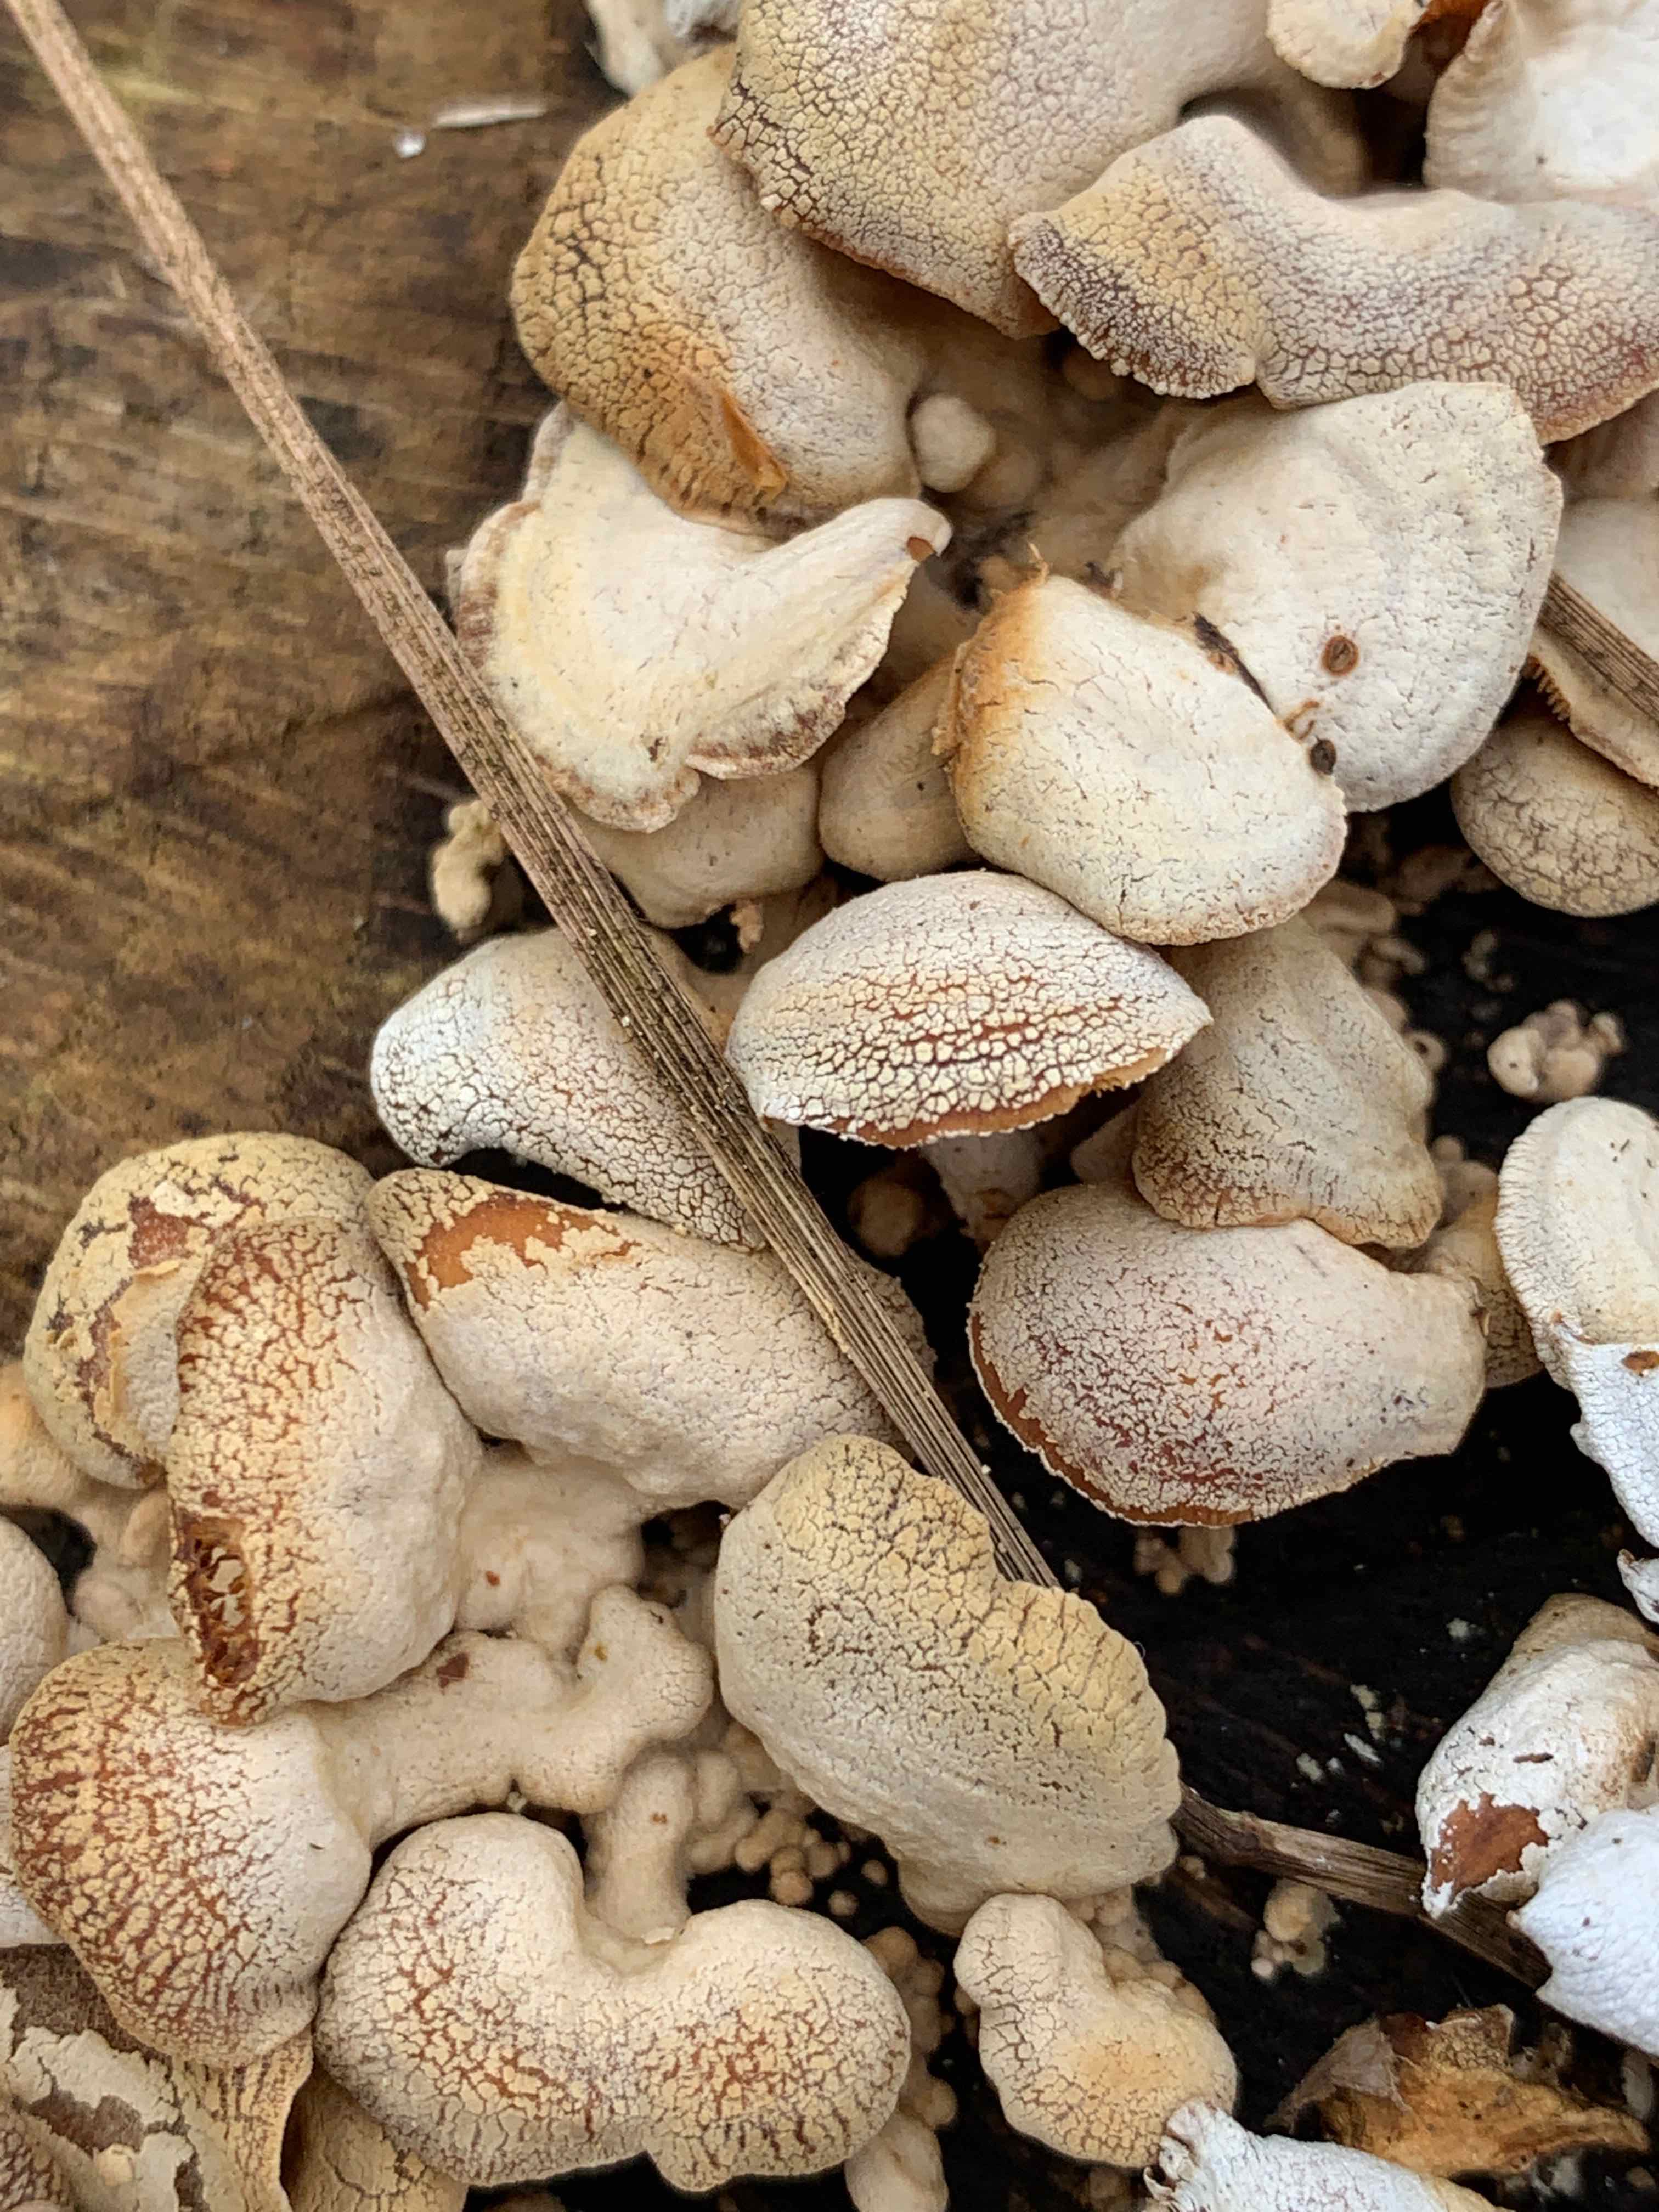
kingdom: Fungi
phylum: Basidiomycota
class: Agaricomycetes
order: Agaricales
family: Mycenaceae
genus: Panellus
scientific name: Panellus stipticus
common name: kliddet epaulethat
